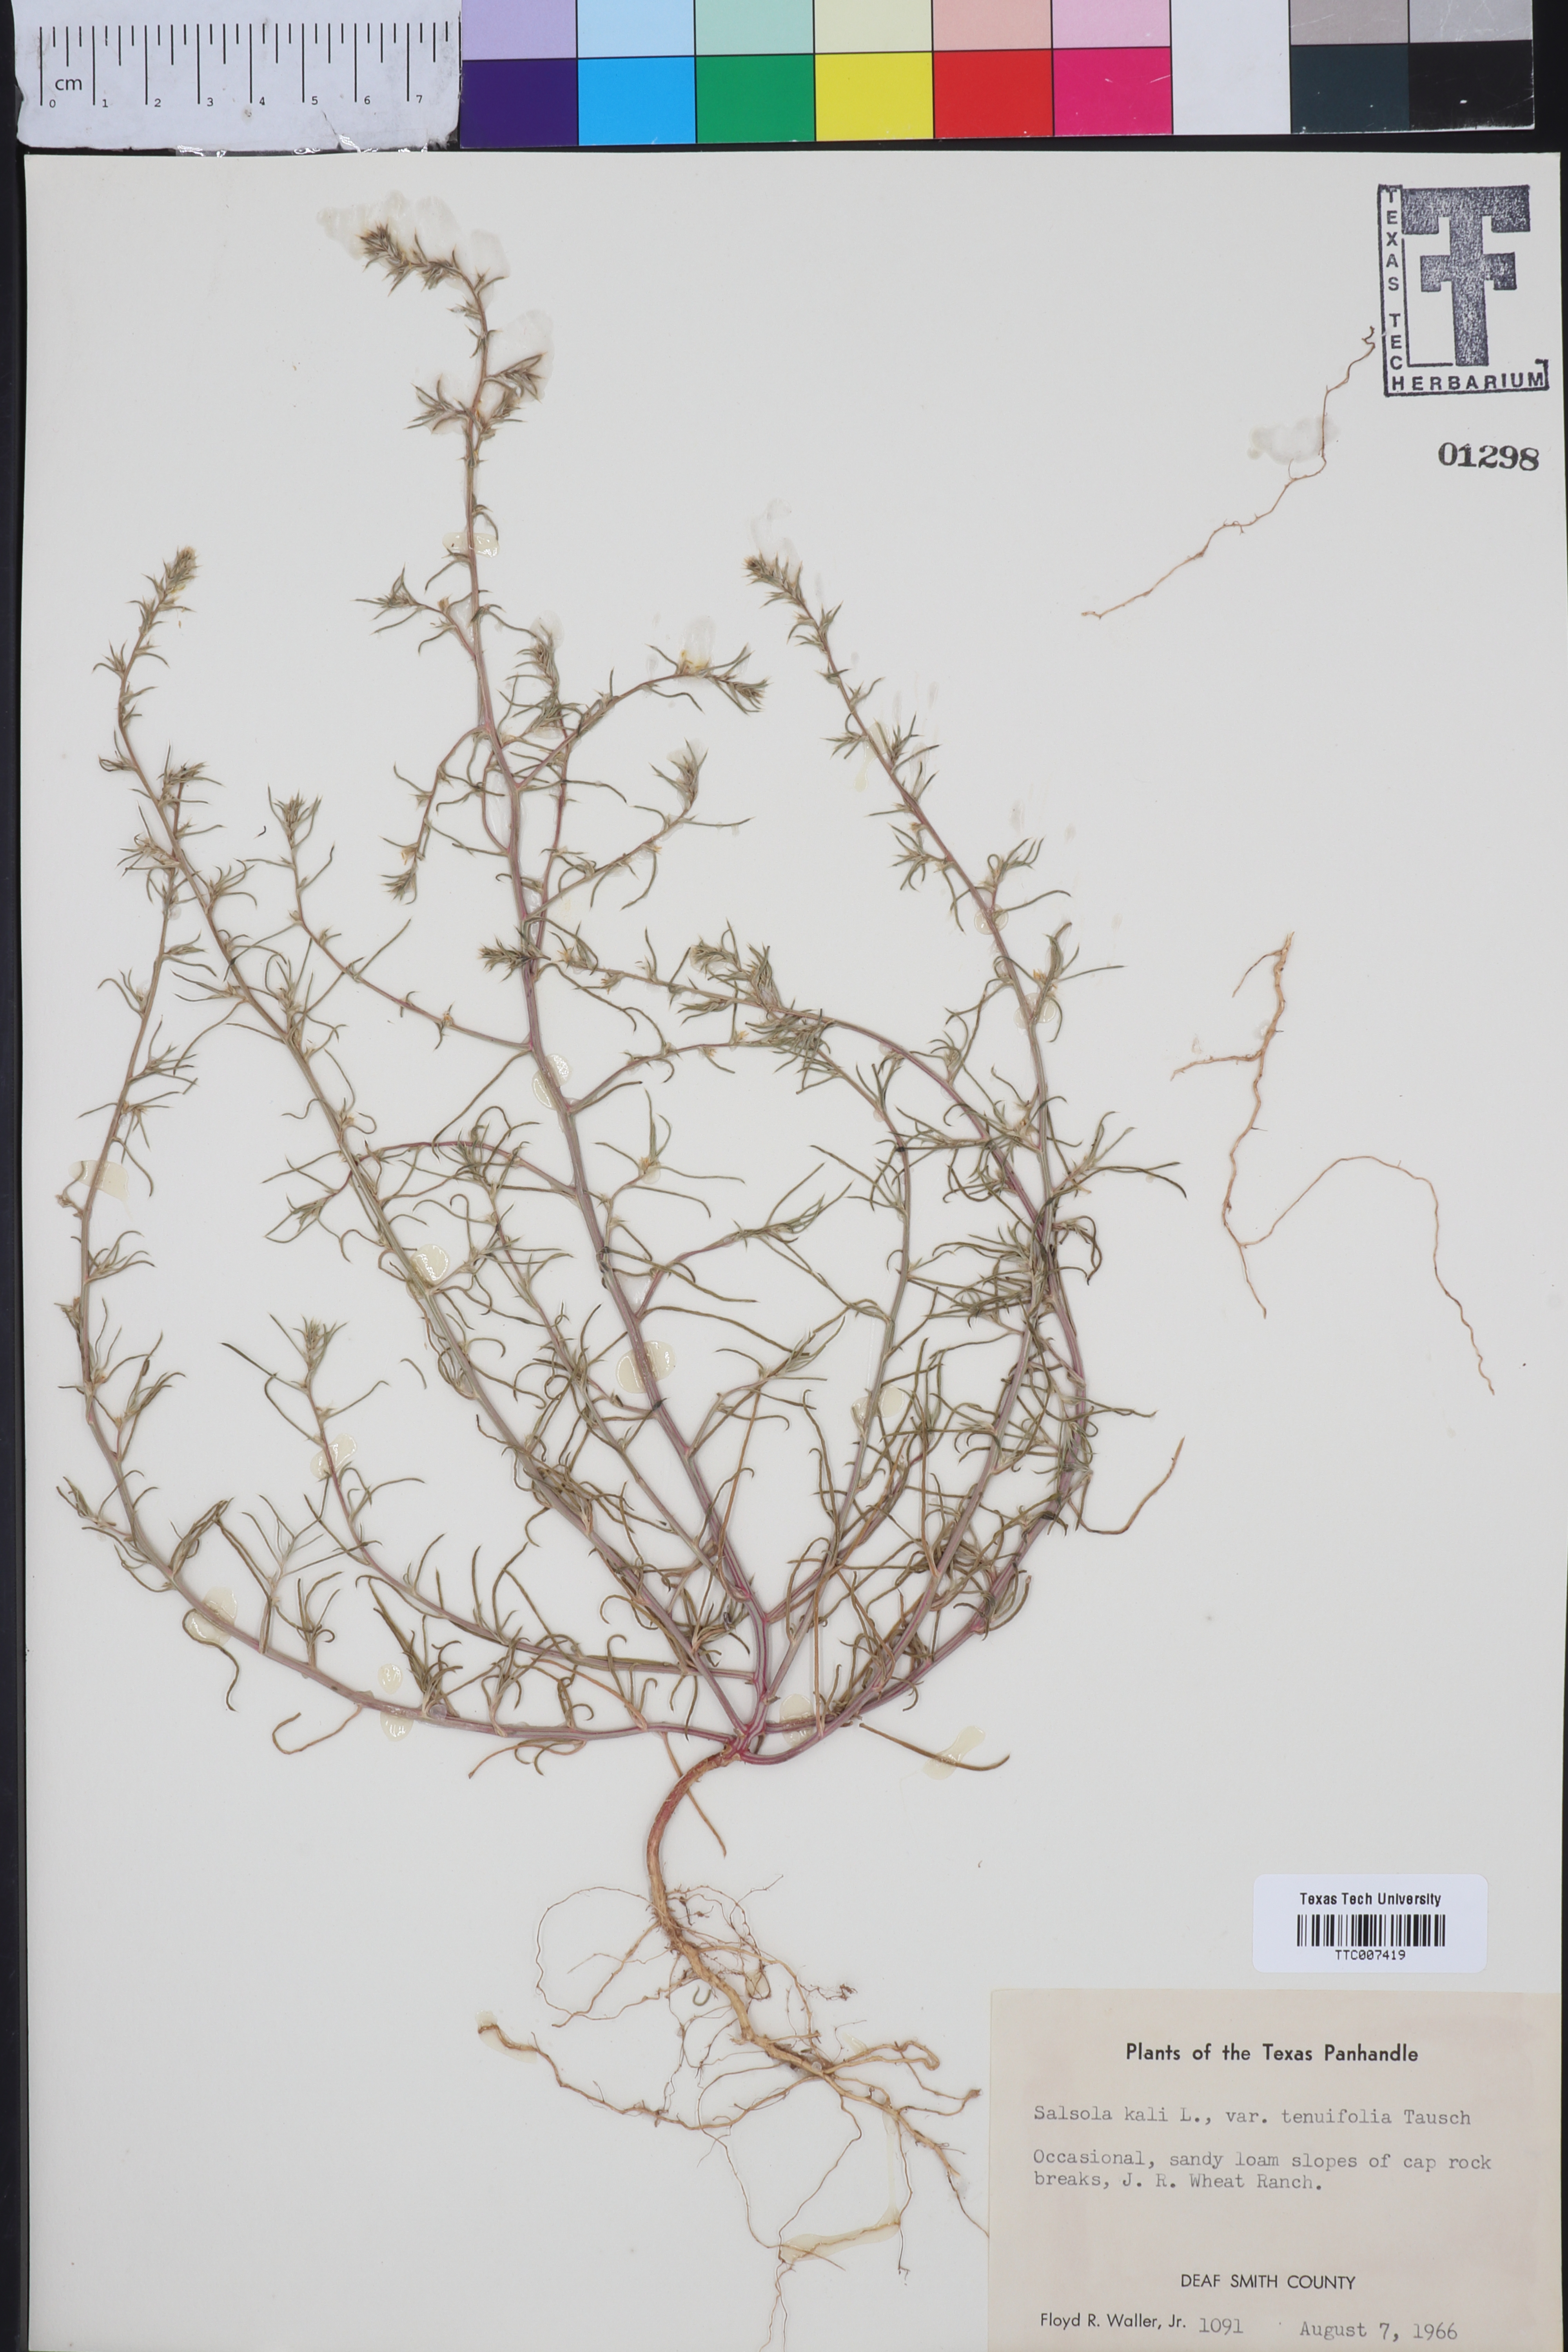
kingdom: Plantae
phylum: Tracheophyta
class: Magnoliopsida
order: Caryophyllales
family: Amaranthaceae
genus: Salsola
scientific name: Salsola tragus
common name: Prickly russian thistle
